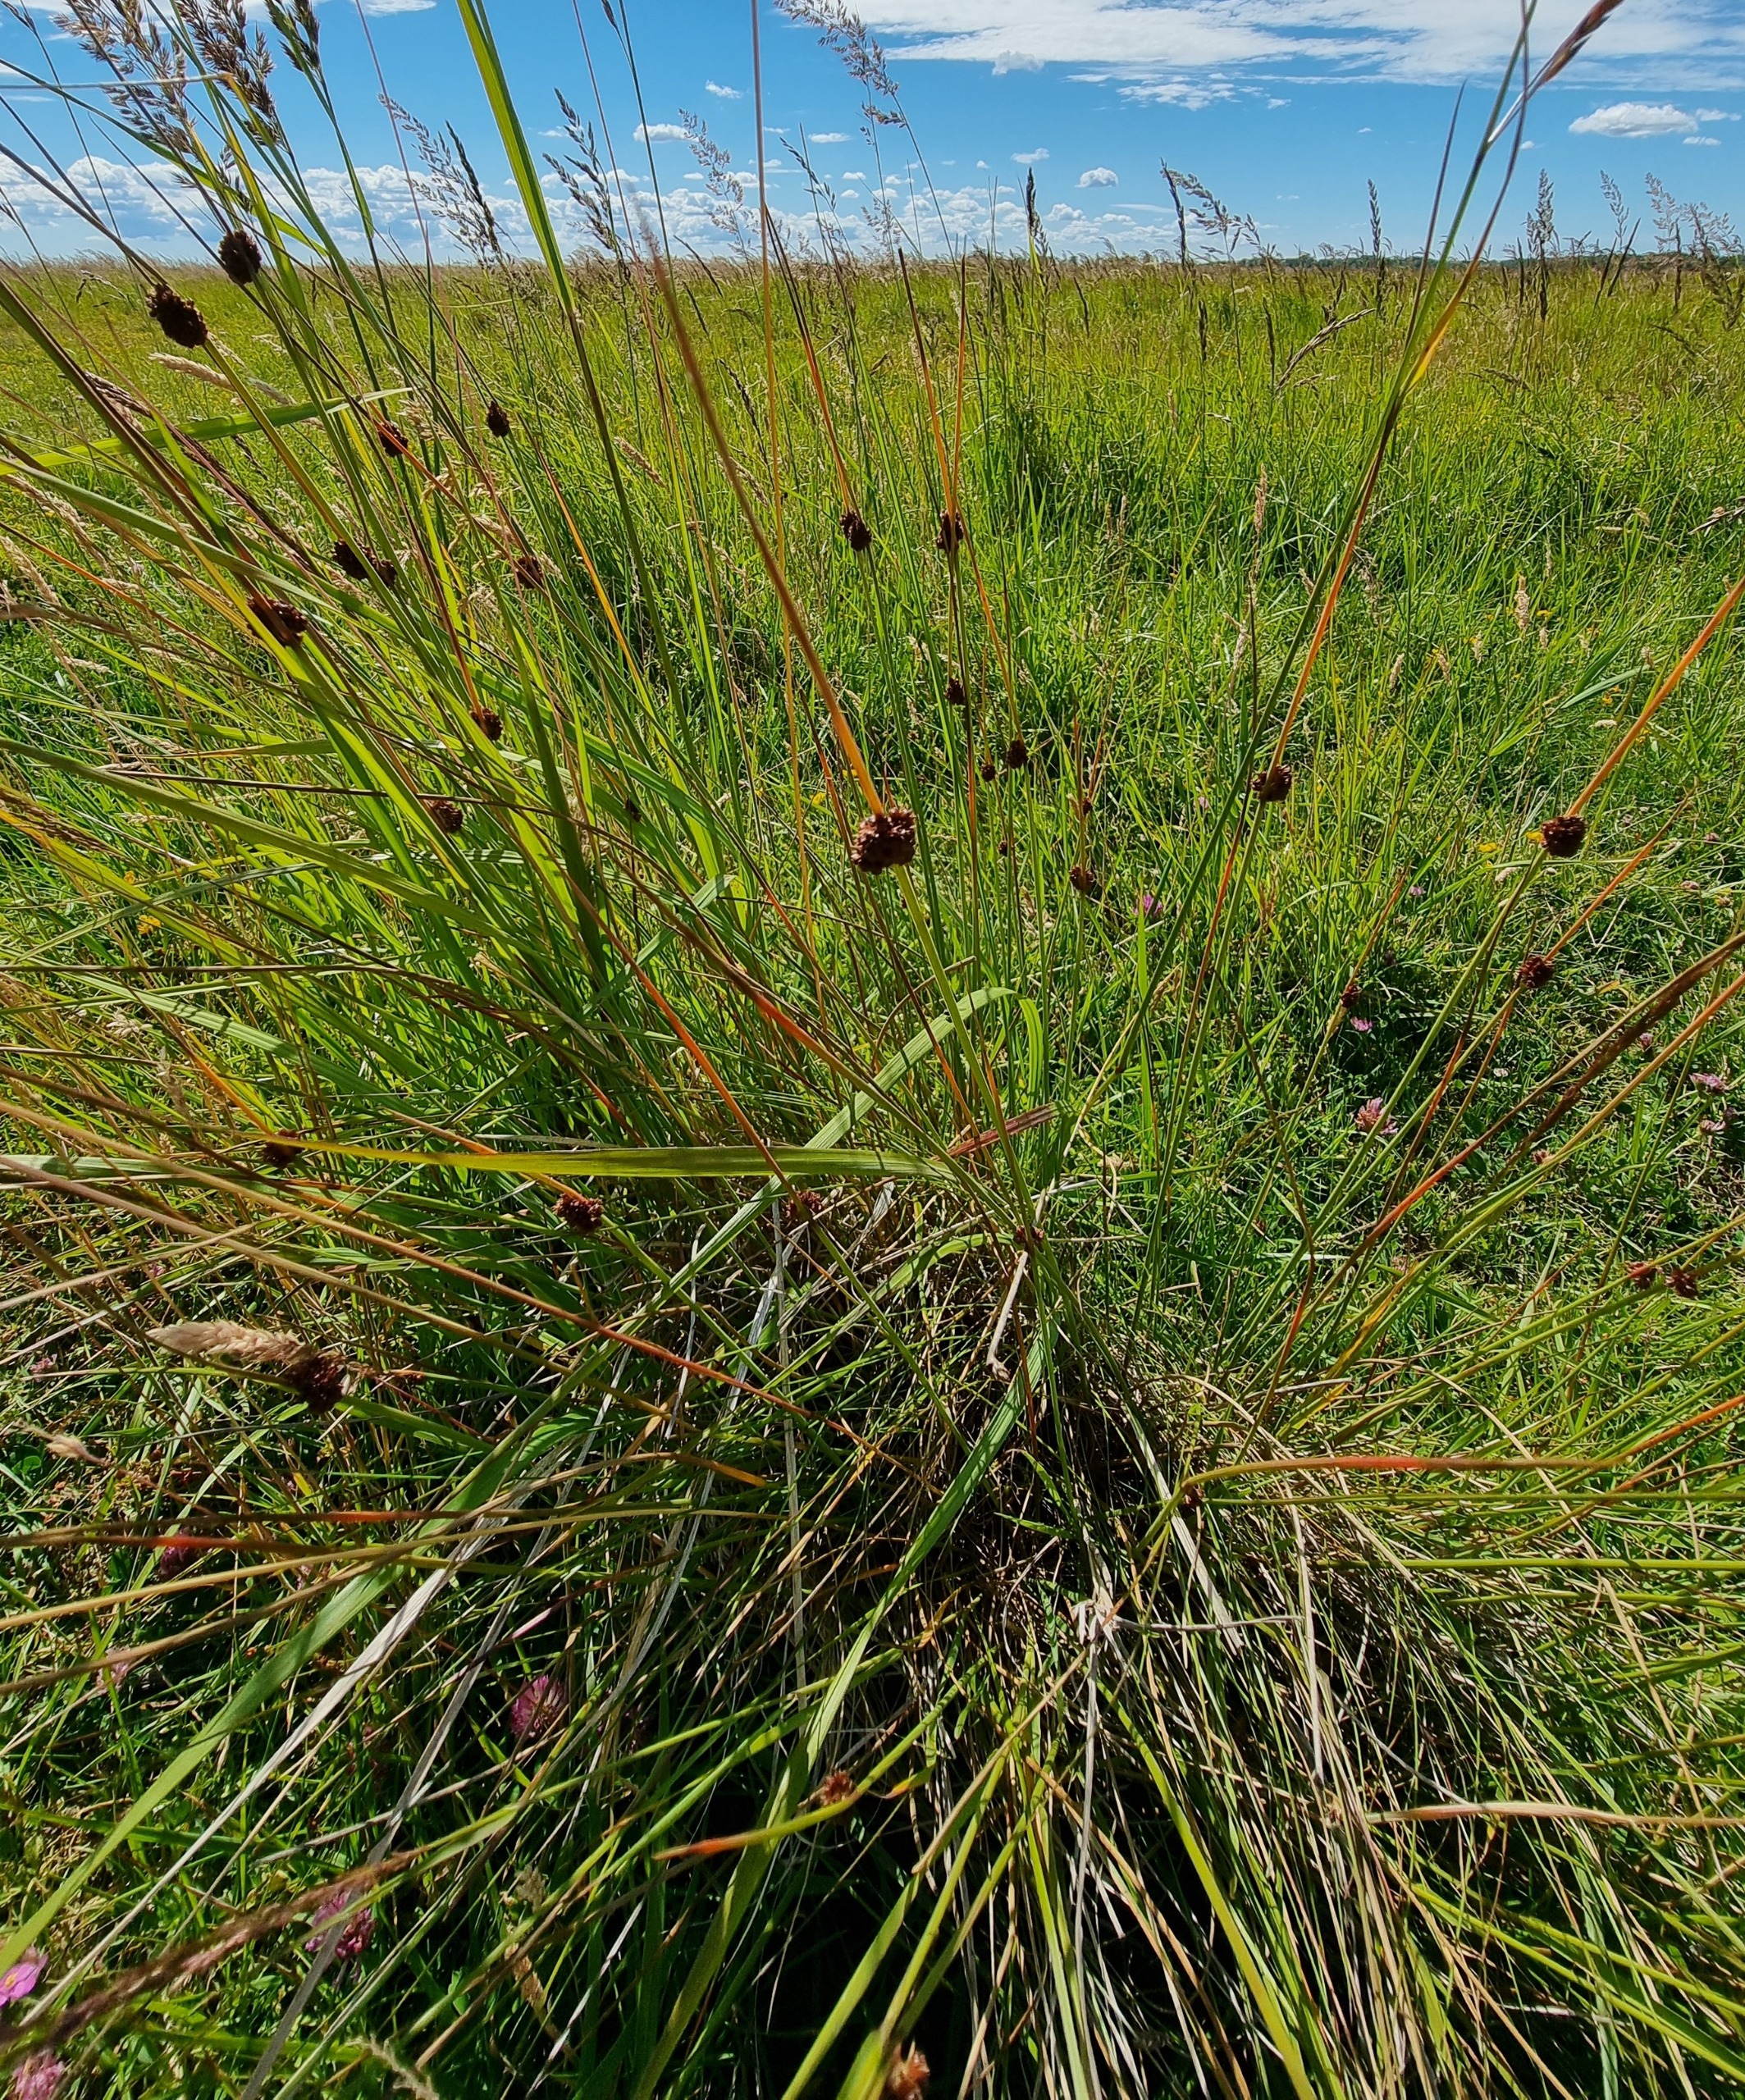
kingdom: Plantae
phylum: Tracheophyta
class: Liliopsida
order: Poales
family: Juncaceae
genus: Juncus
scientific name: Juncus conglomeratus
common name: Knop-siv
